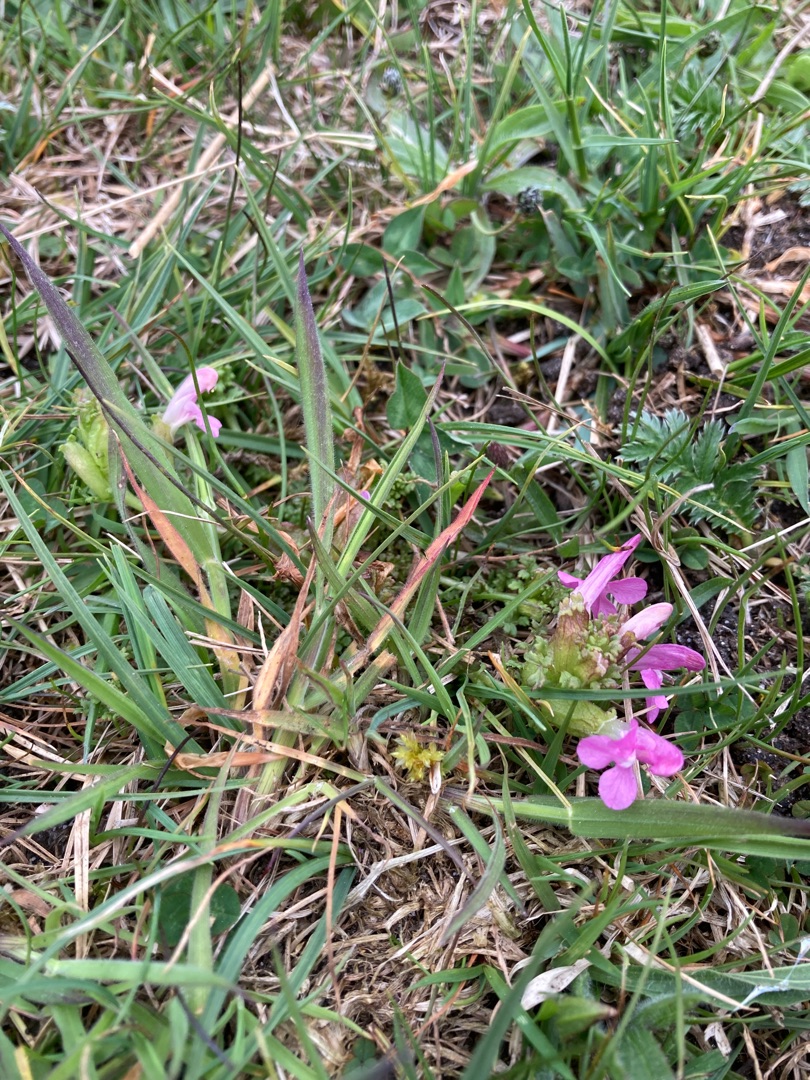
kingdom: Plantae
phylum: Tracheophyta
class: Magnoliopsida
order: Lamiales
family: Orobanchaceae
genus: Pedicularis
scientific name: Pedicularis sylvatica
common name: Mose-troldurt
